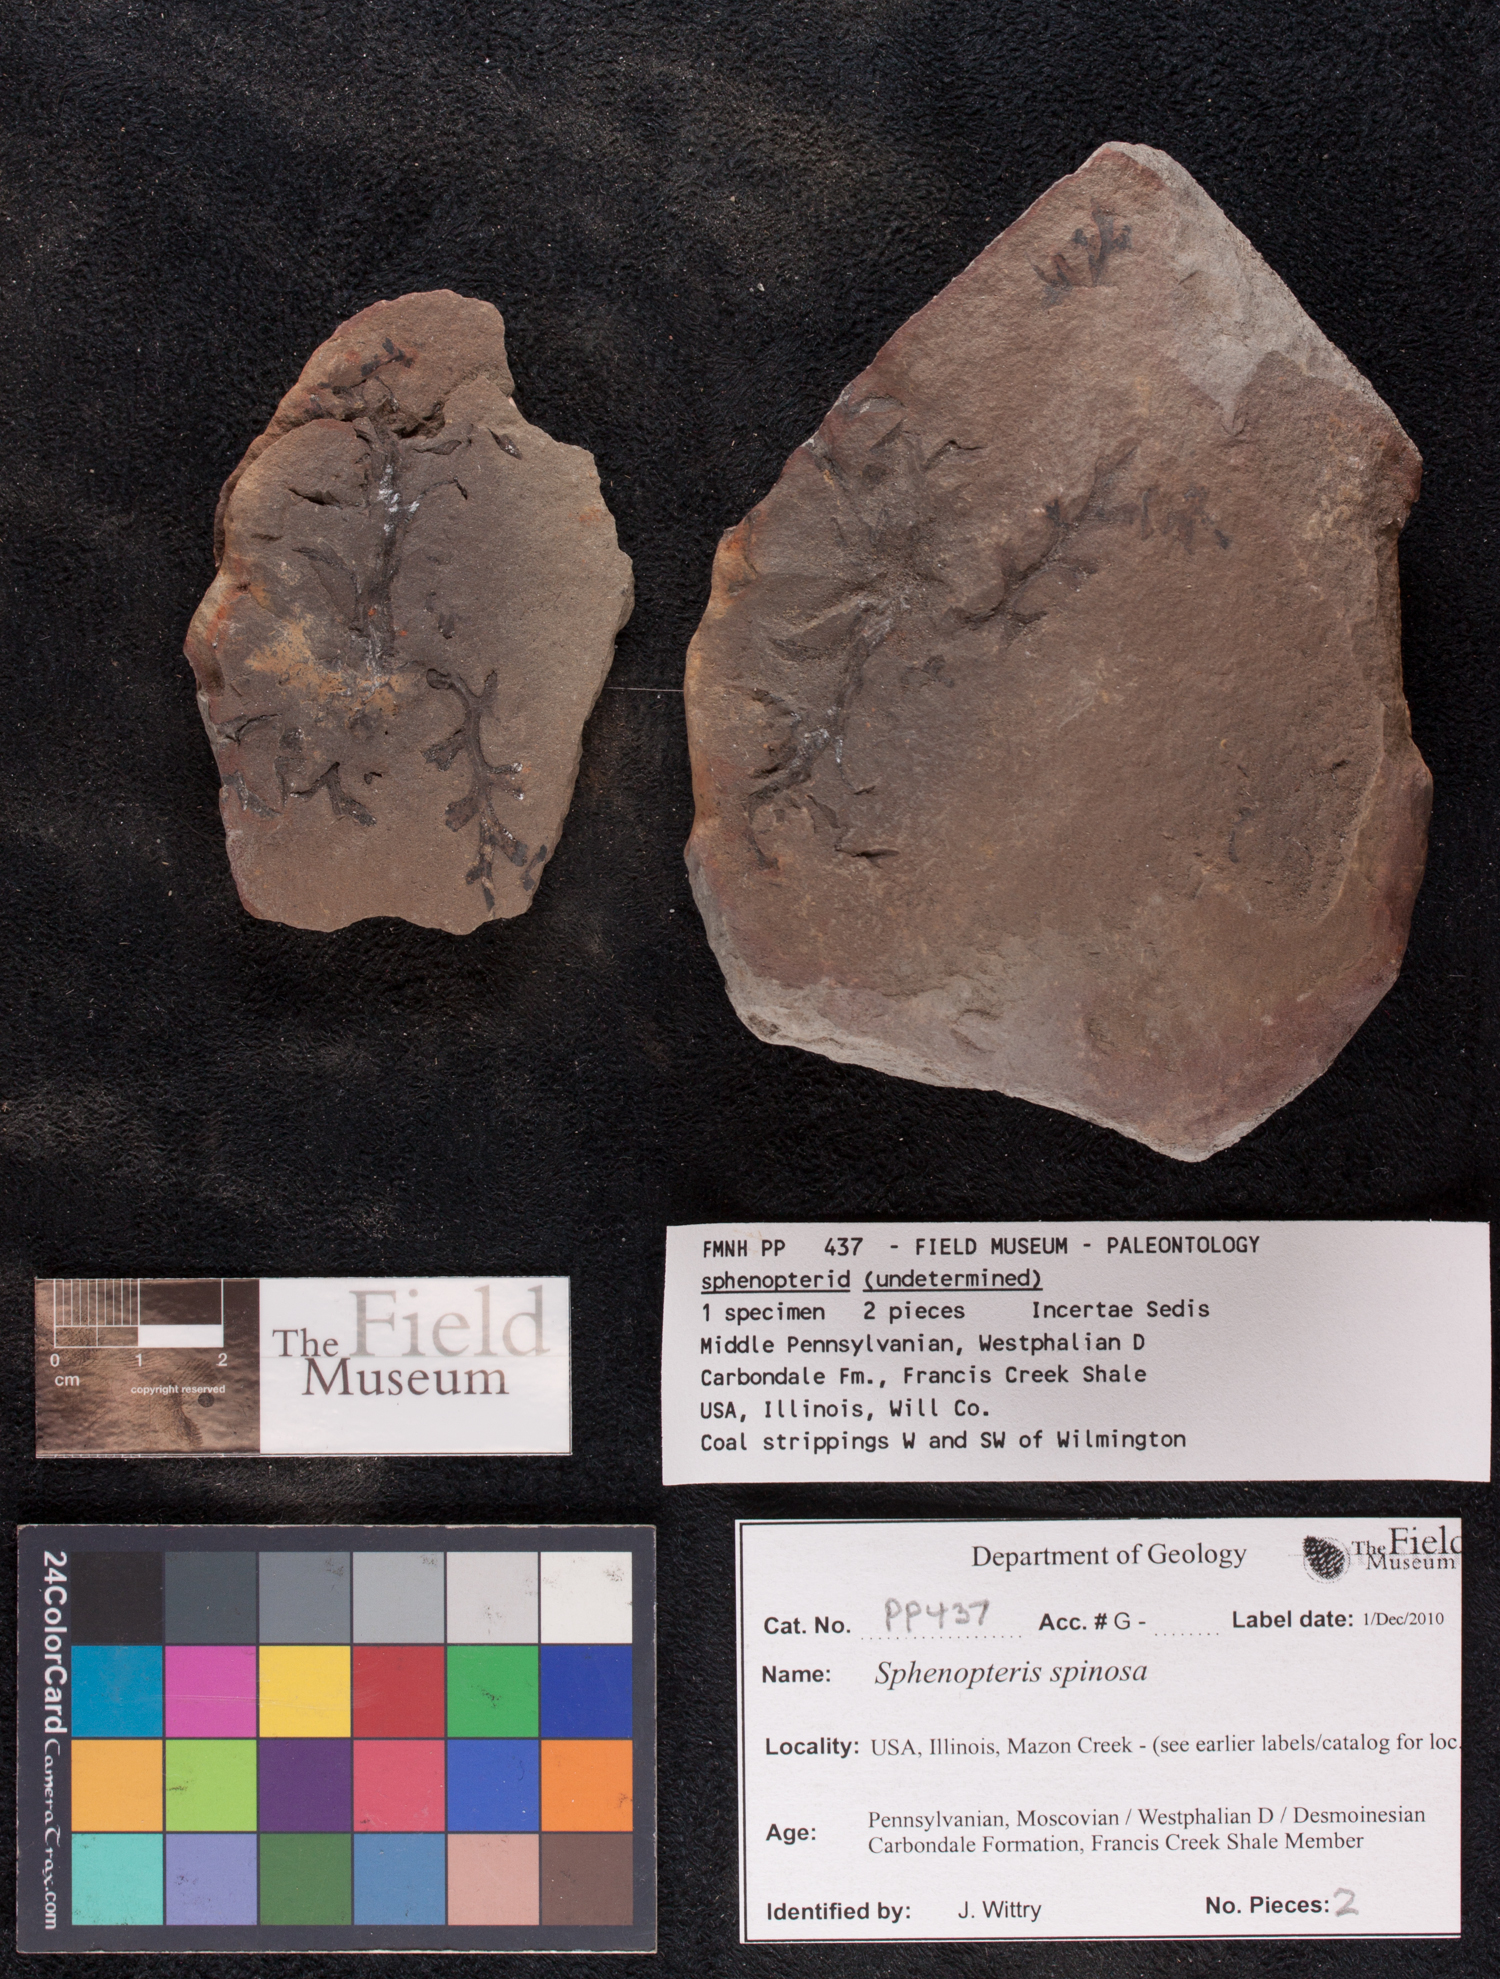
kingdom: Plantae
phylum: Tracheophyta
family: Lyginopteridaceae
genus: Sphenopteris
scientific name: Sphenopteris
